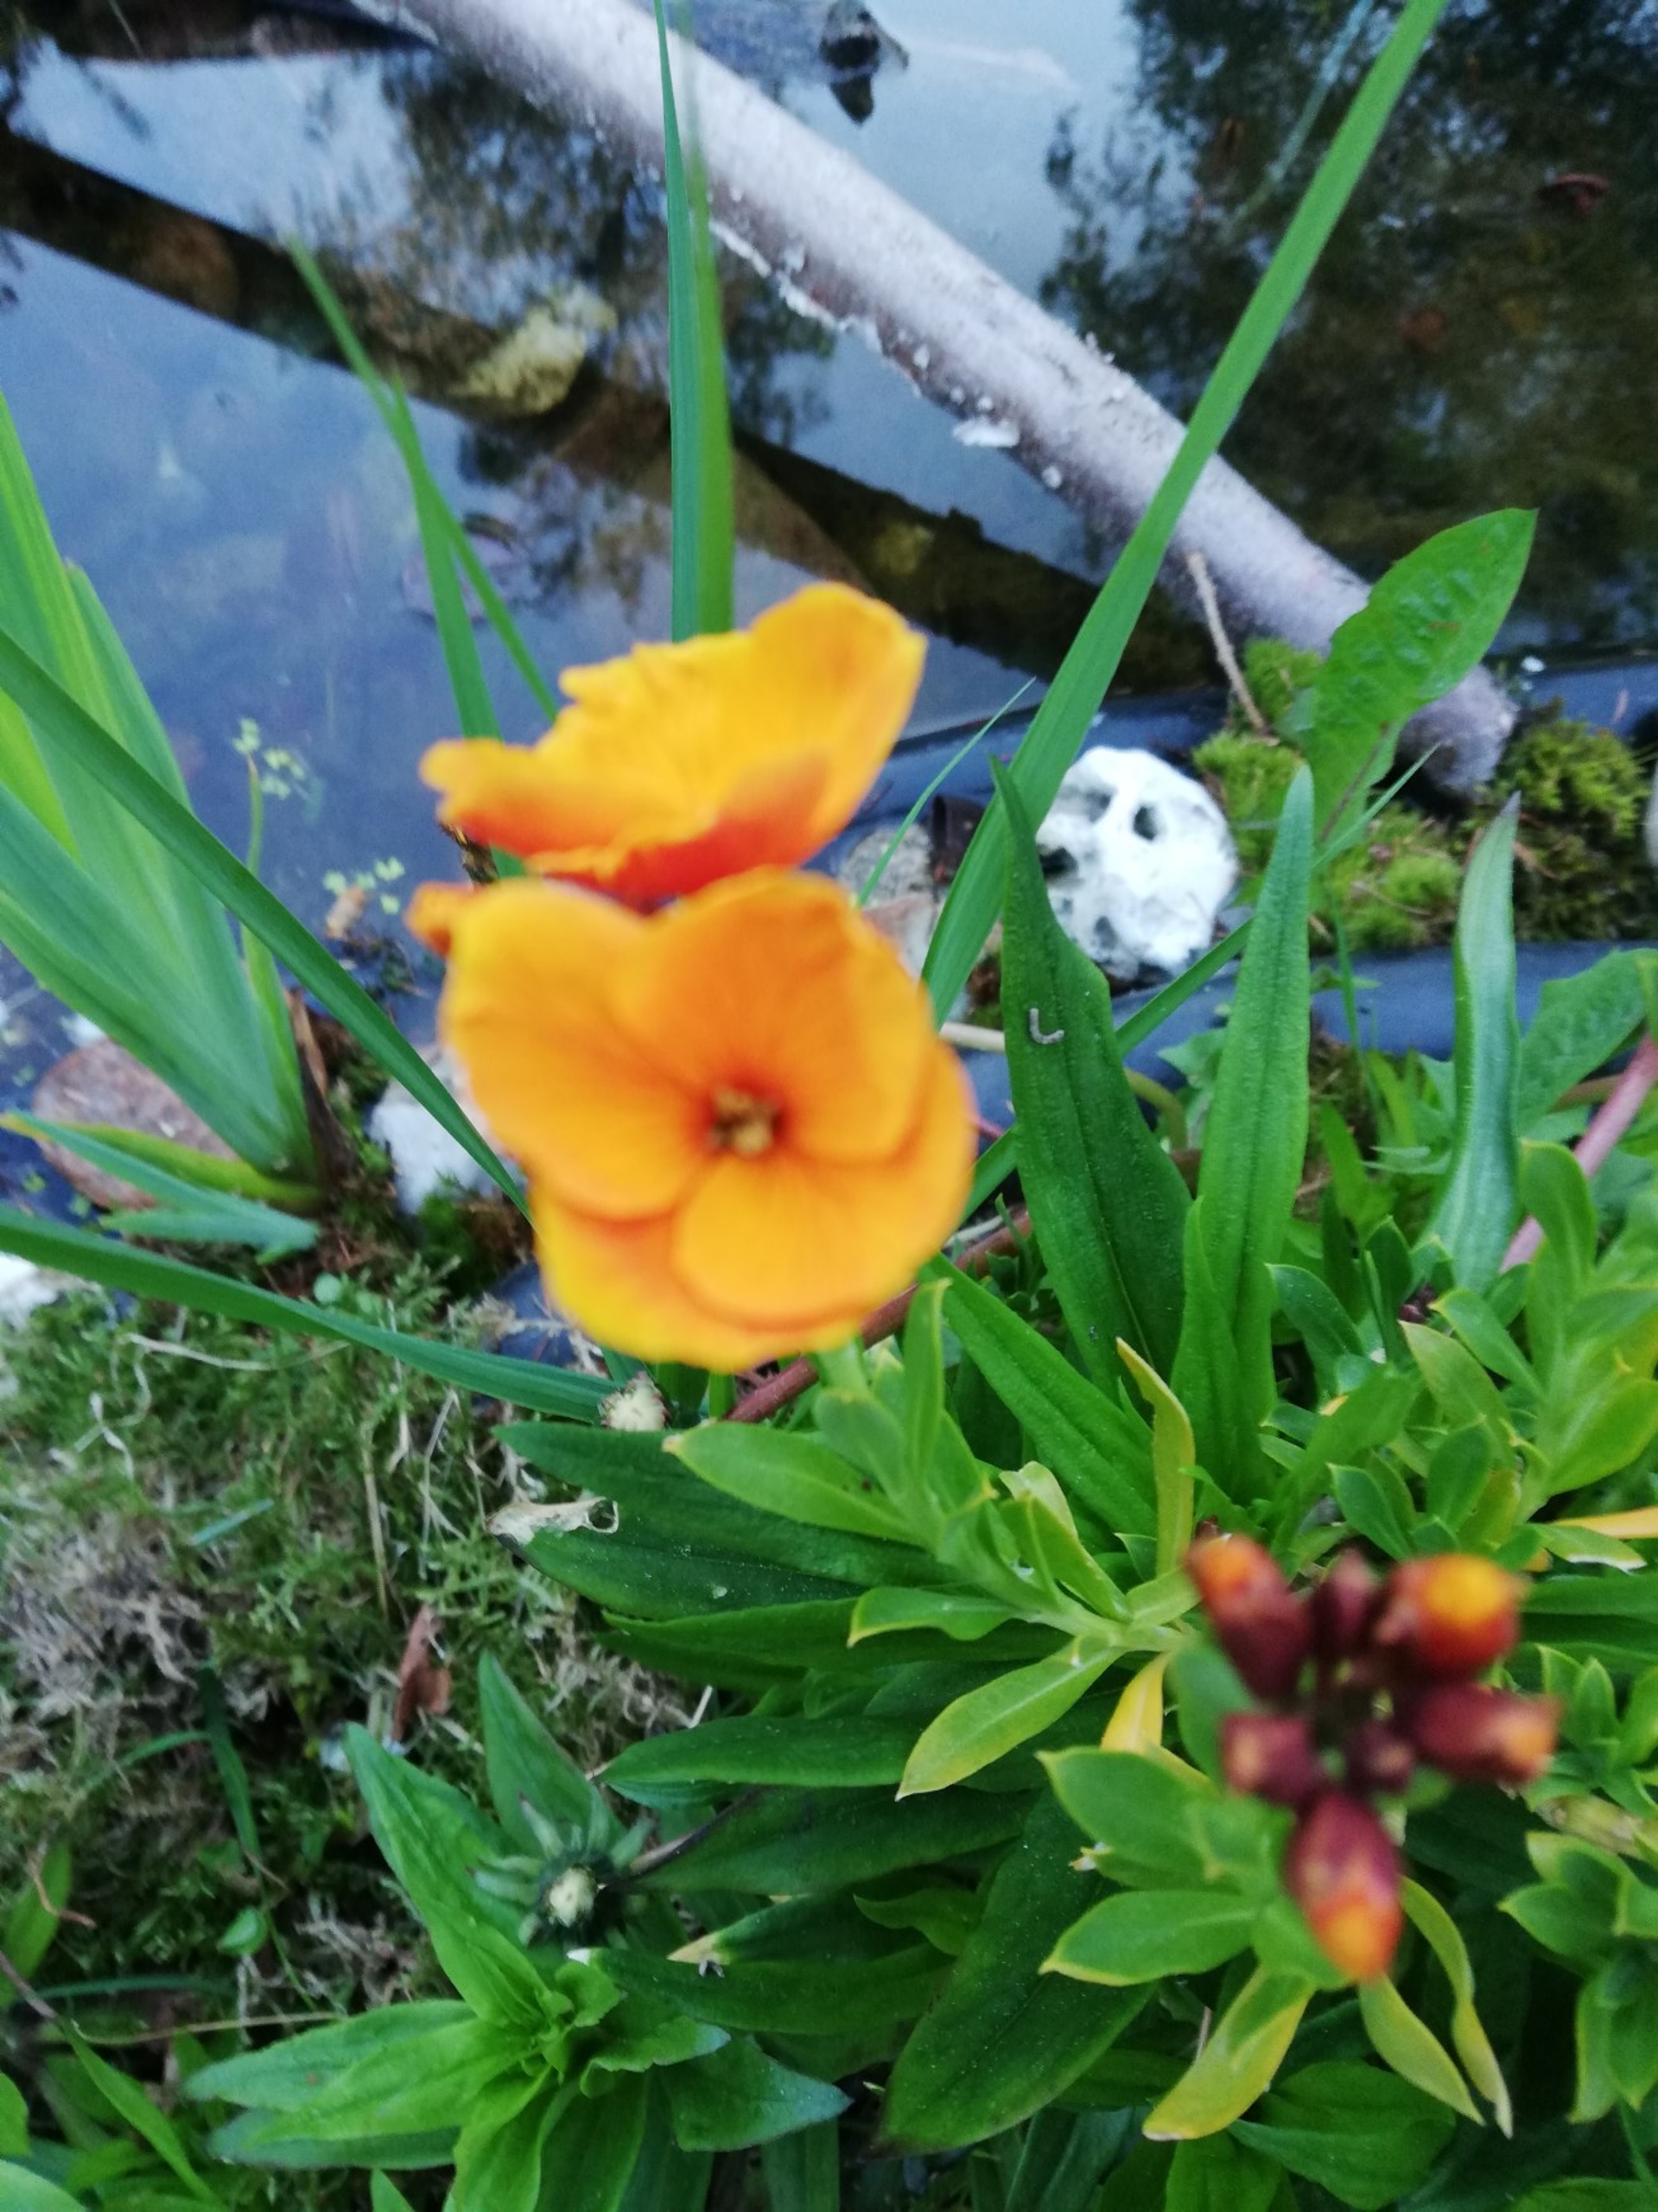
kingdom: Plantae
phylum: Tracheophyta
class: Magnoliopsida
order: Ranunculales
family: Ranunculaceae
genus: Caltha
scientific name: Caltha palustris
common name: Eng-kabbeleje
